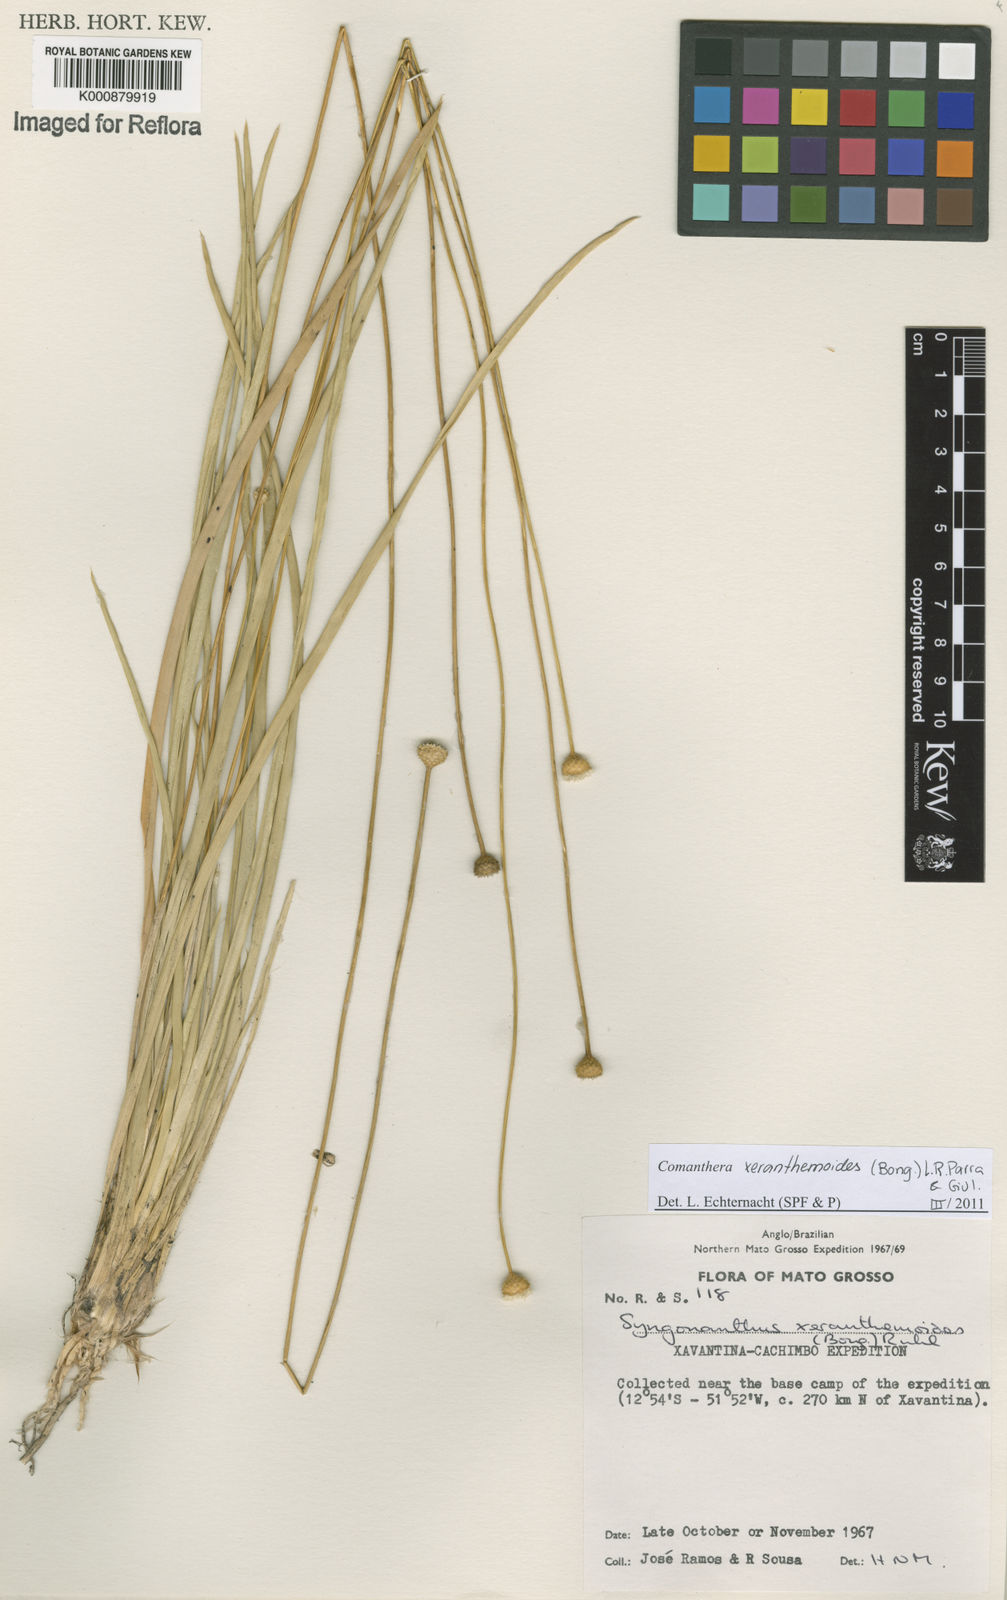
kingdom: Plantae
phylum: Tracheophyta
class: Liliopsida
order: Poales
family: Eriocaulaceae
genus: Comanthera
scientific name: Comanthera xeranthemoides
